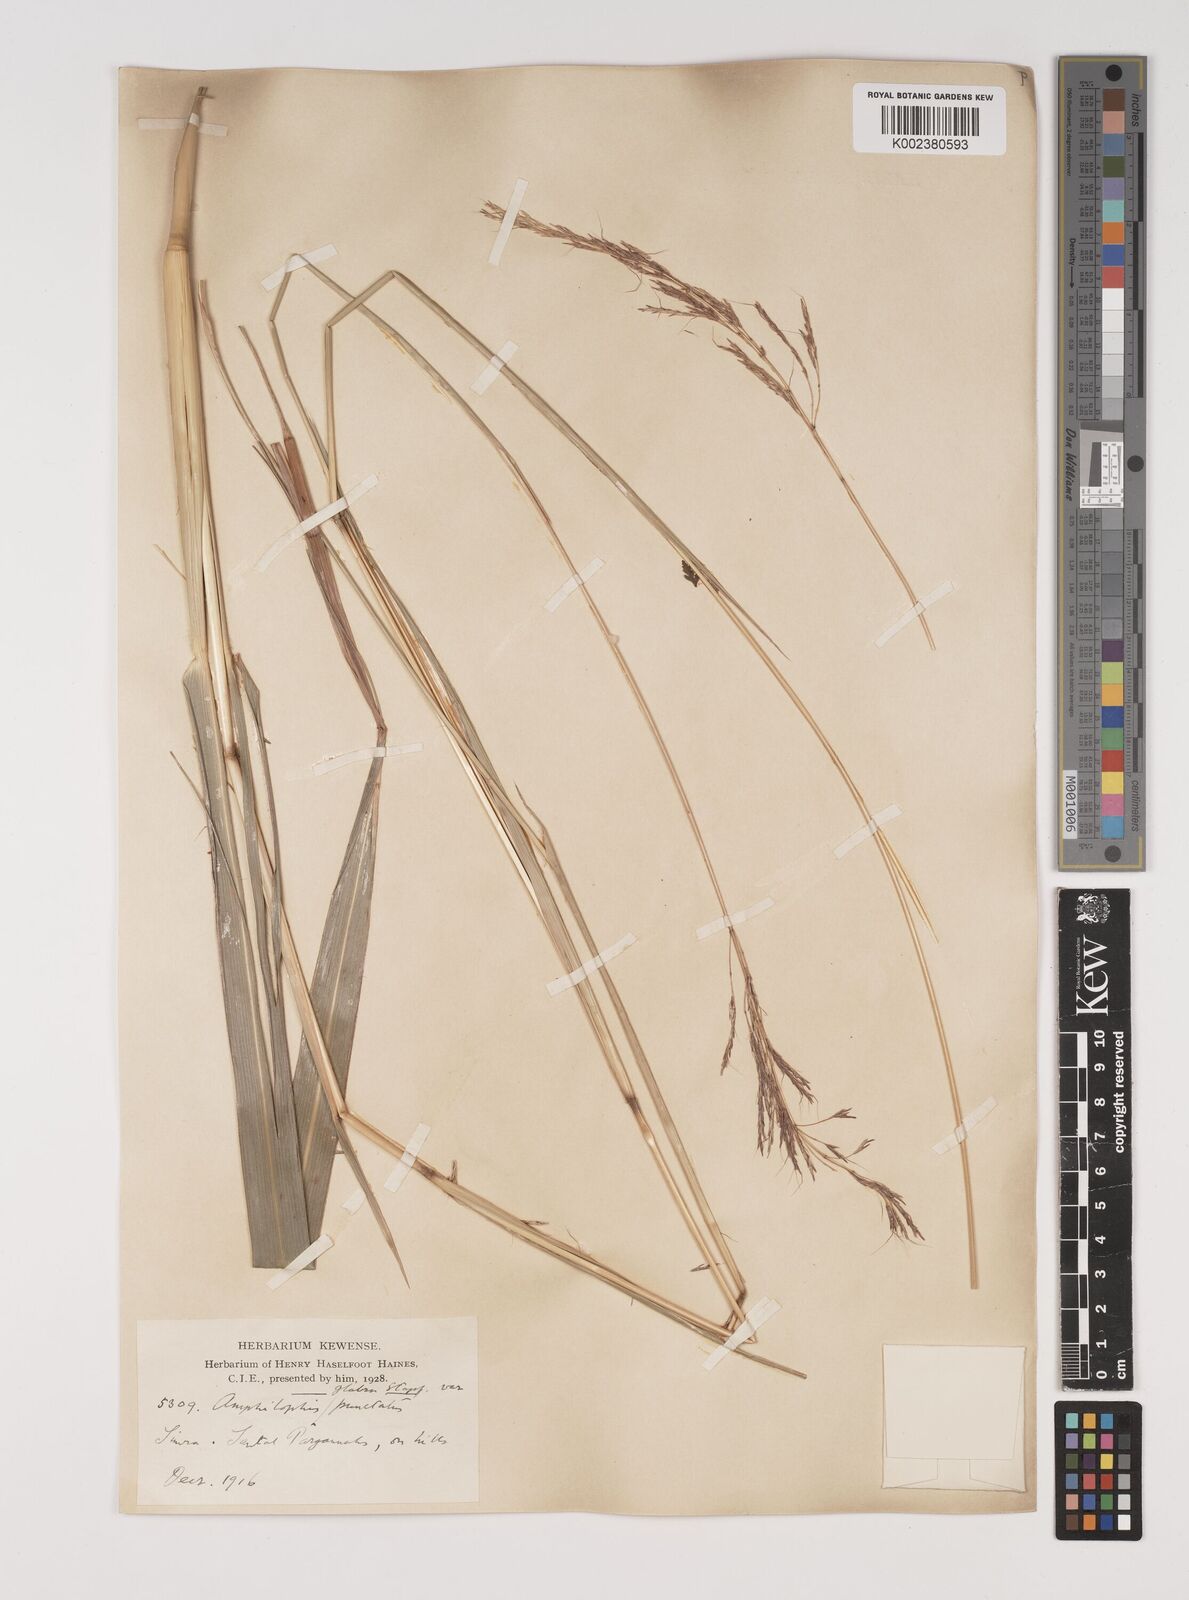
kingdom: Plantae
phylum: Tracheophyta
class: Liliopsida
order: Poales
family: Poaceae
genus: Bothriochloa
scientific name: Bothriochloa bladhii
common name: Caucasian bluestem
